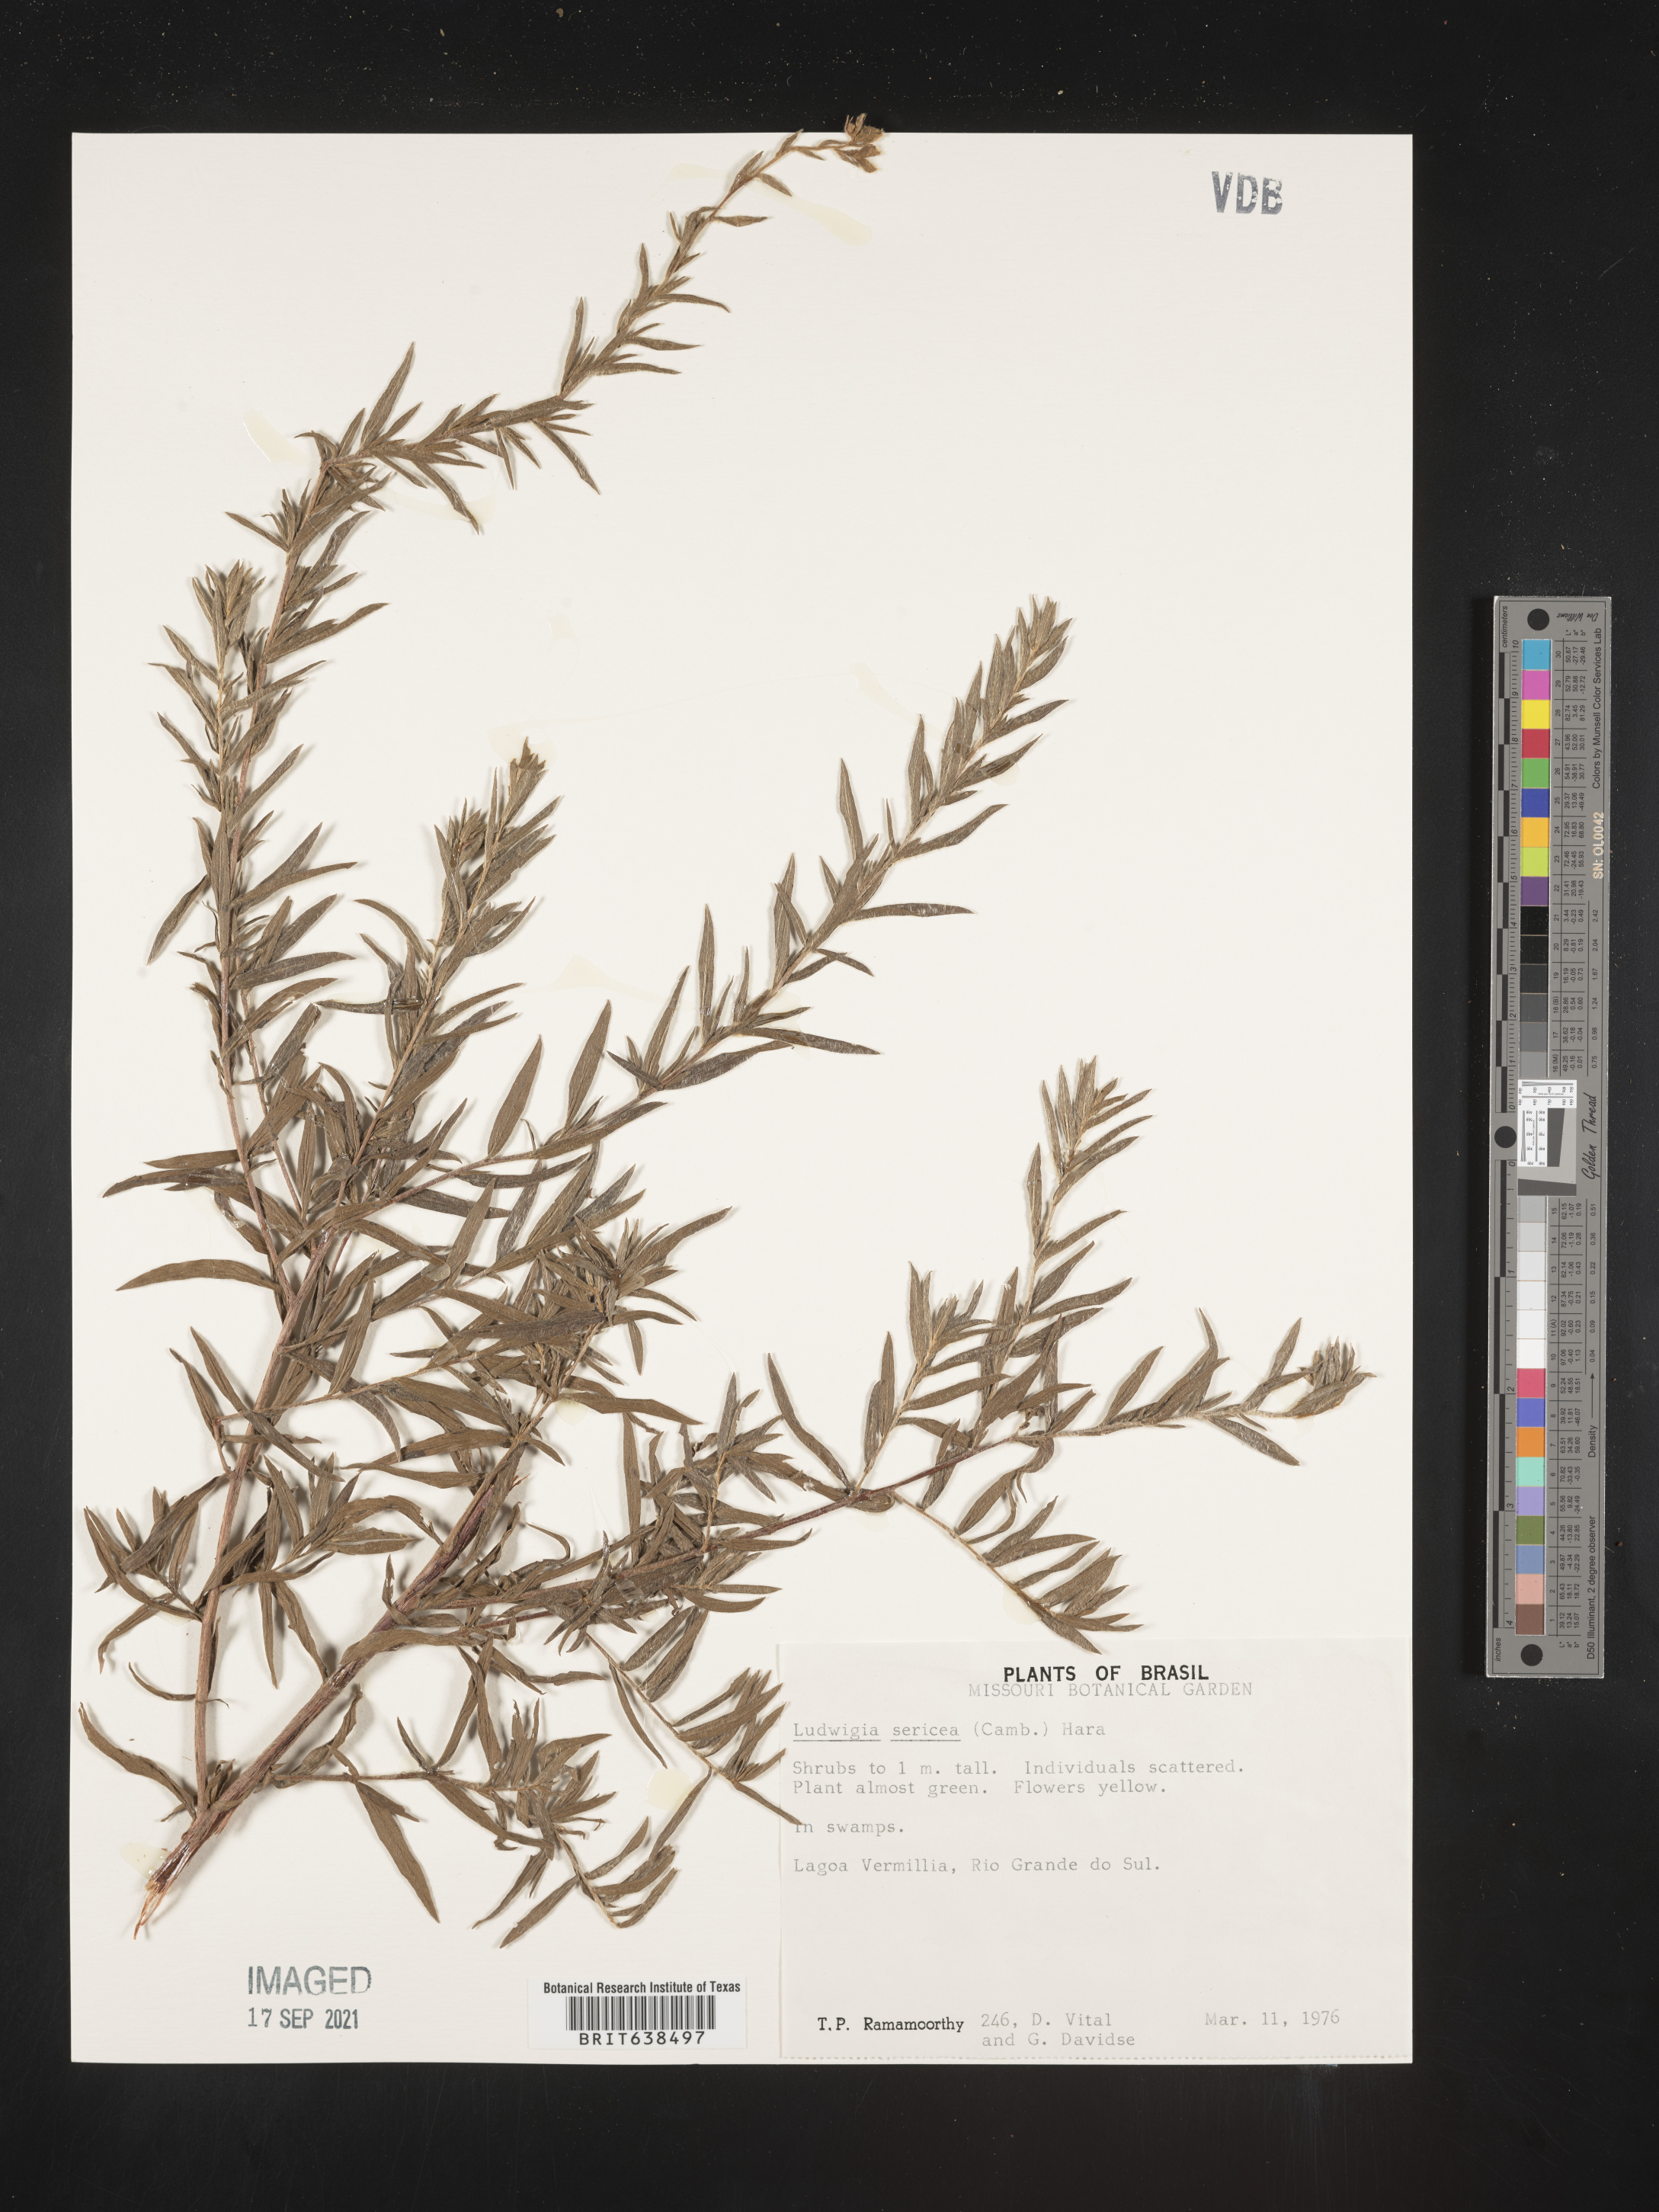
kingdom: Plantae
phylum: Tracheophyta
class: Magnoliopsida
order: Myrtales
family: Onagraceae
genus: Ludwigia
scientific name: Ludwigia
